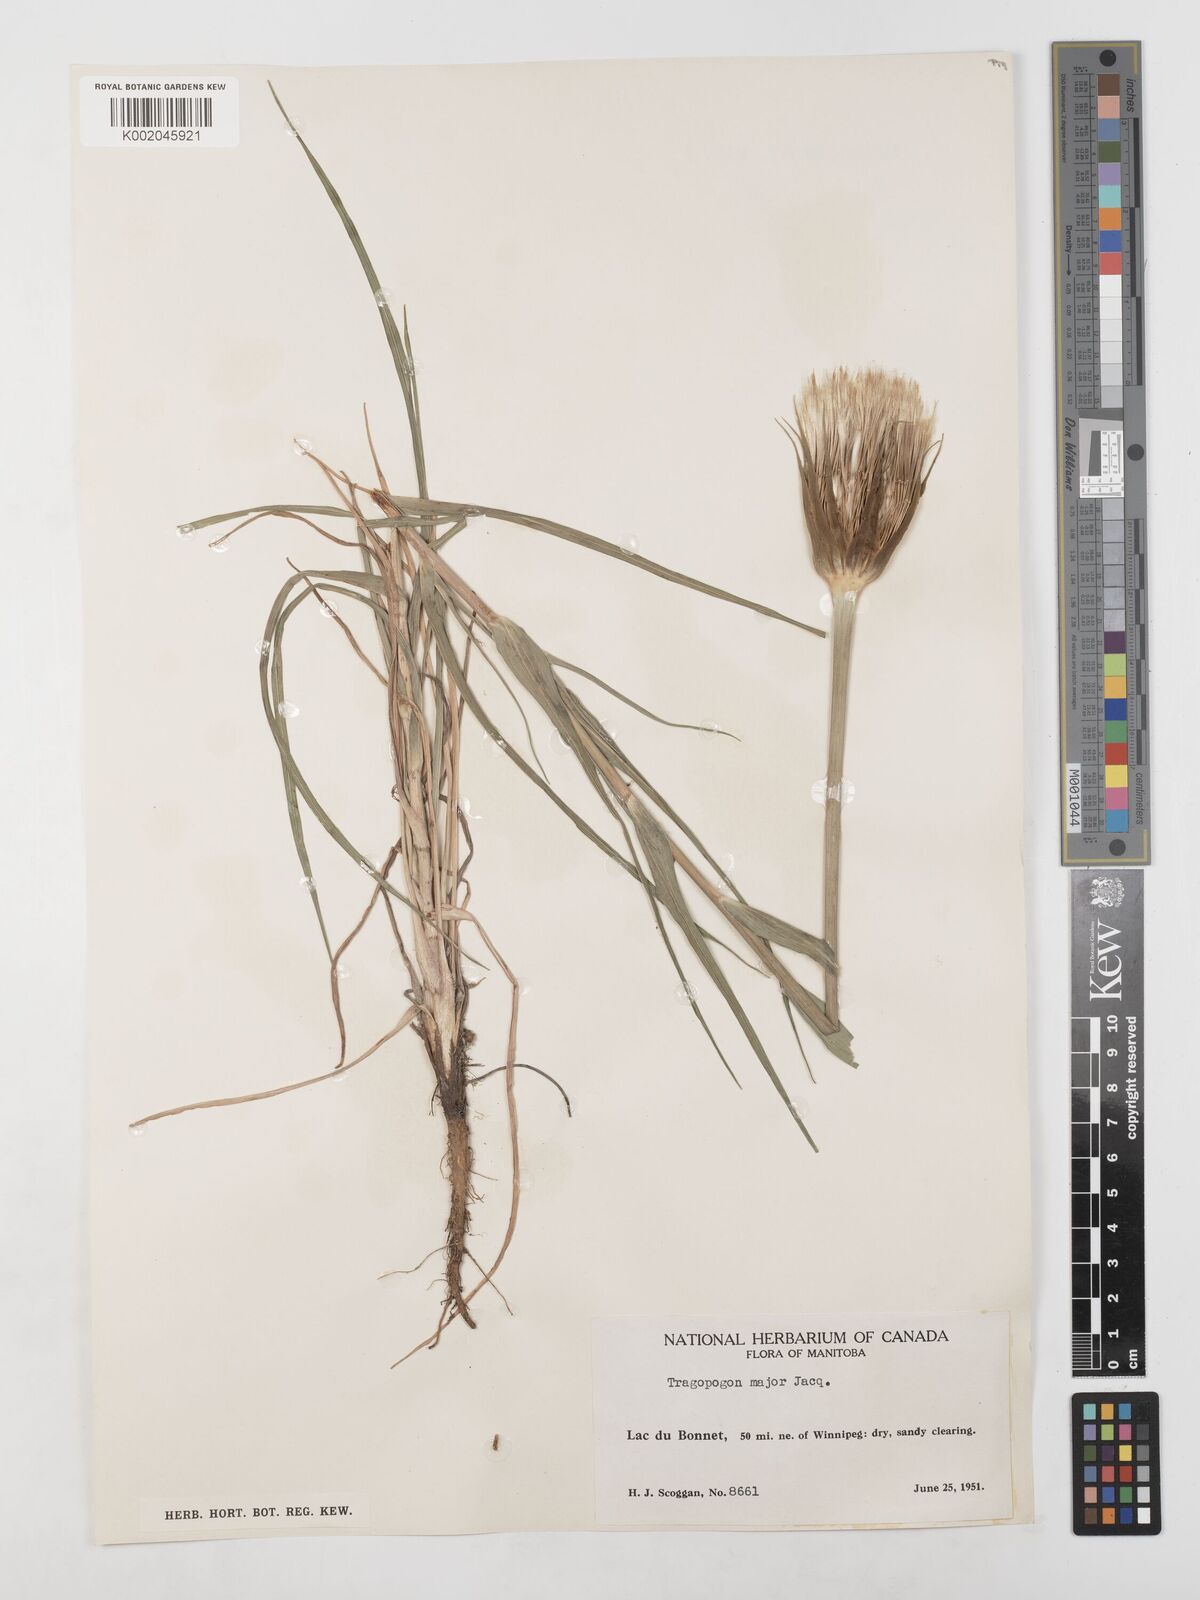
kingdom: Plantae
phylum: Tracheophyta
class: Magnoliopsida
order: Asterales
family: Asteraceae
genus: Tragopogon
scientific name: Tragopogon dubius
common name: Yellow salsify
